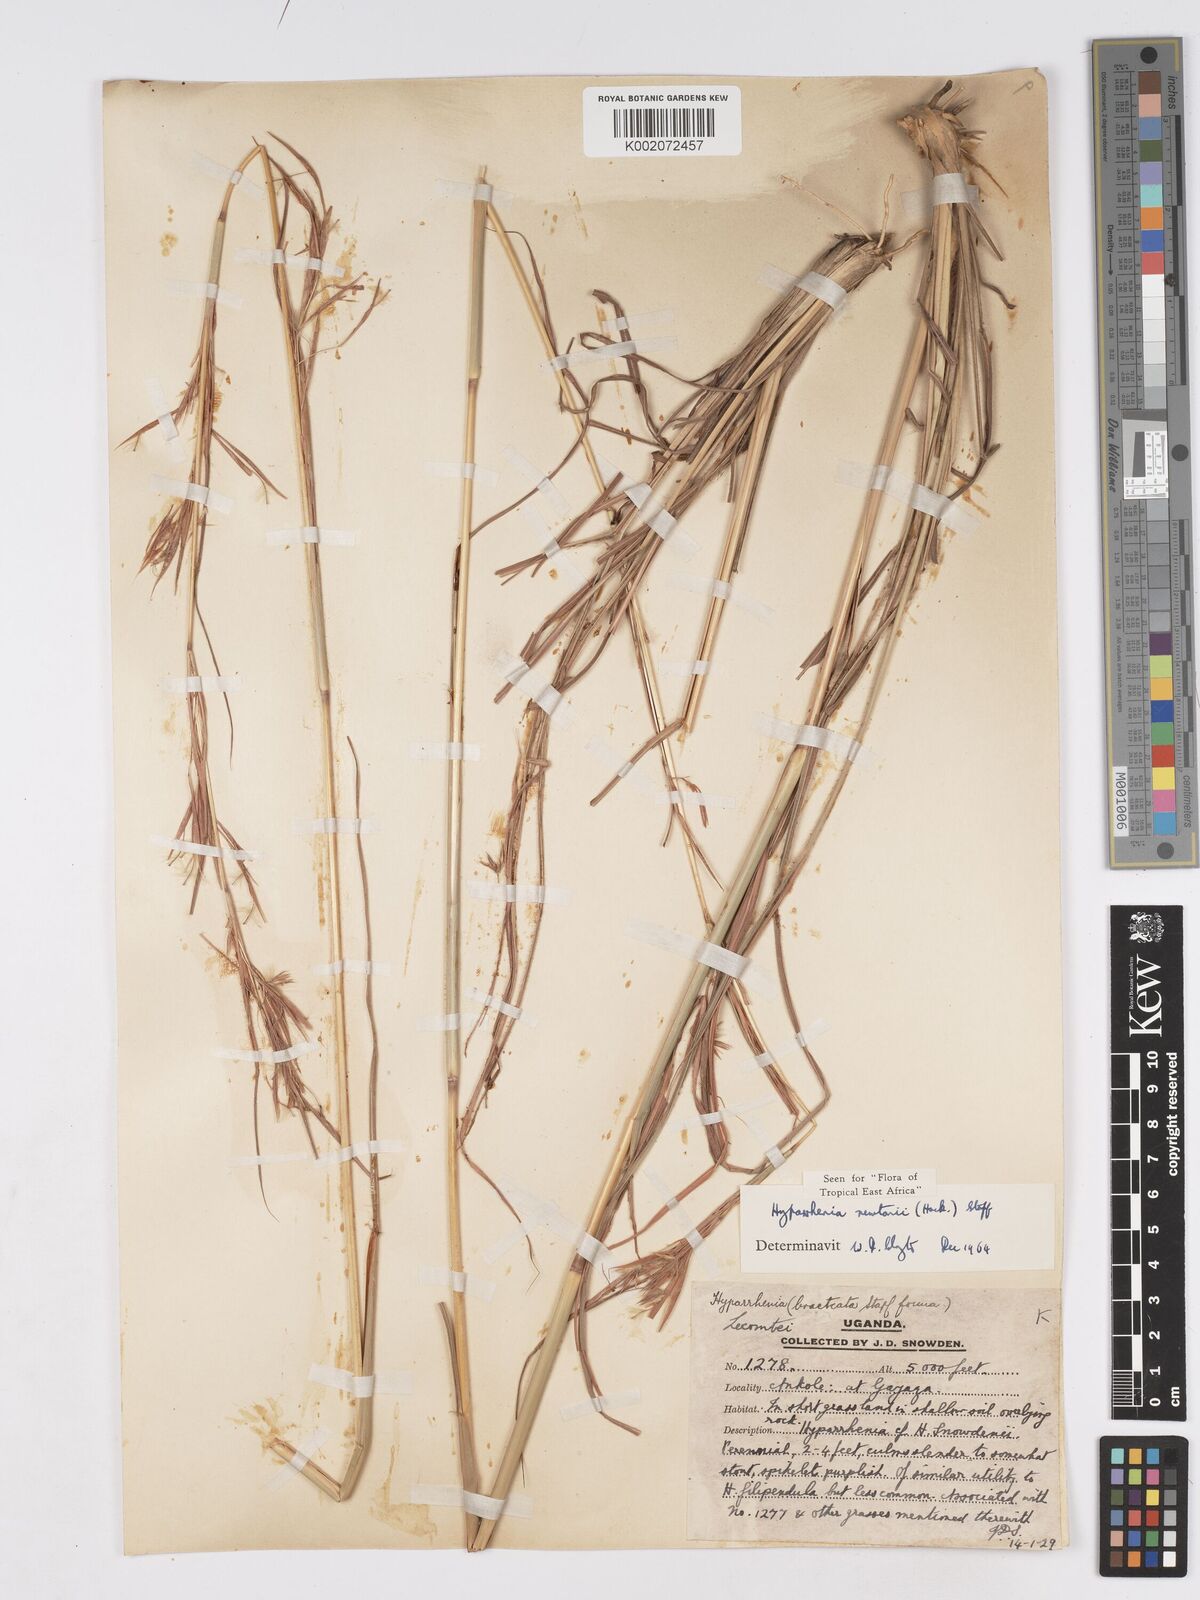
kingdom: Plantae
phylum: Tracheophyta
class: Liliopsida
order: Poales
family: Poaceae
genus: Hyparrhenia
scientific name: Hyparrhenia newtonii
